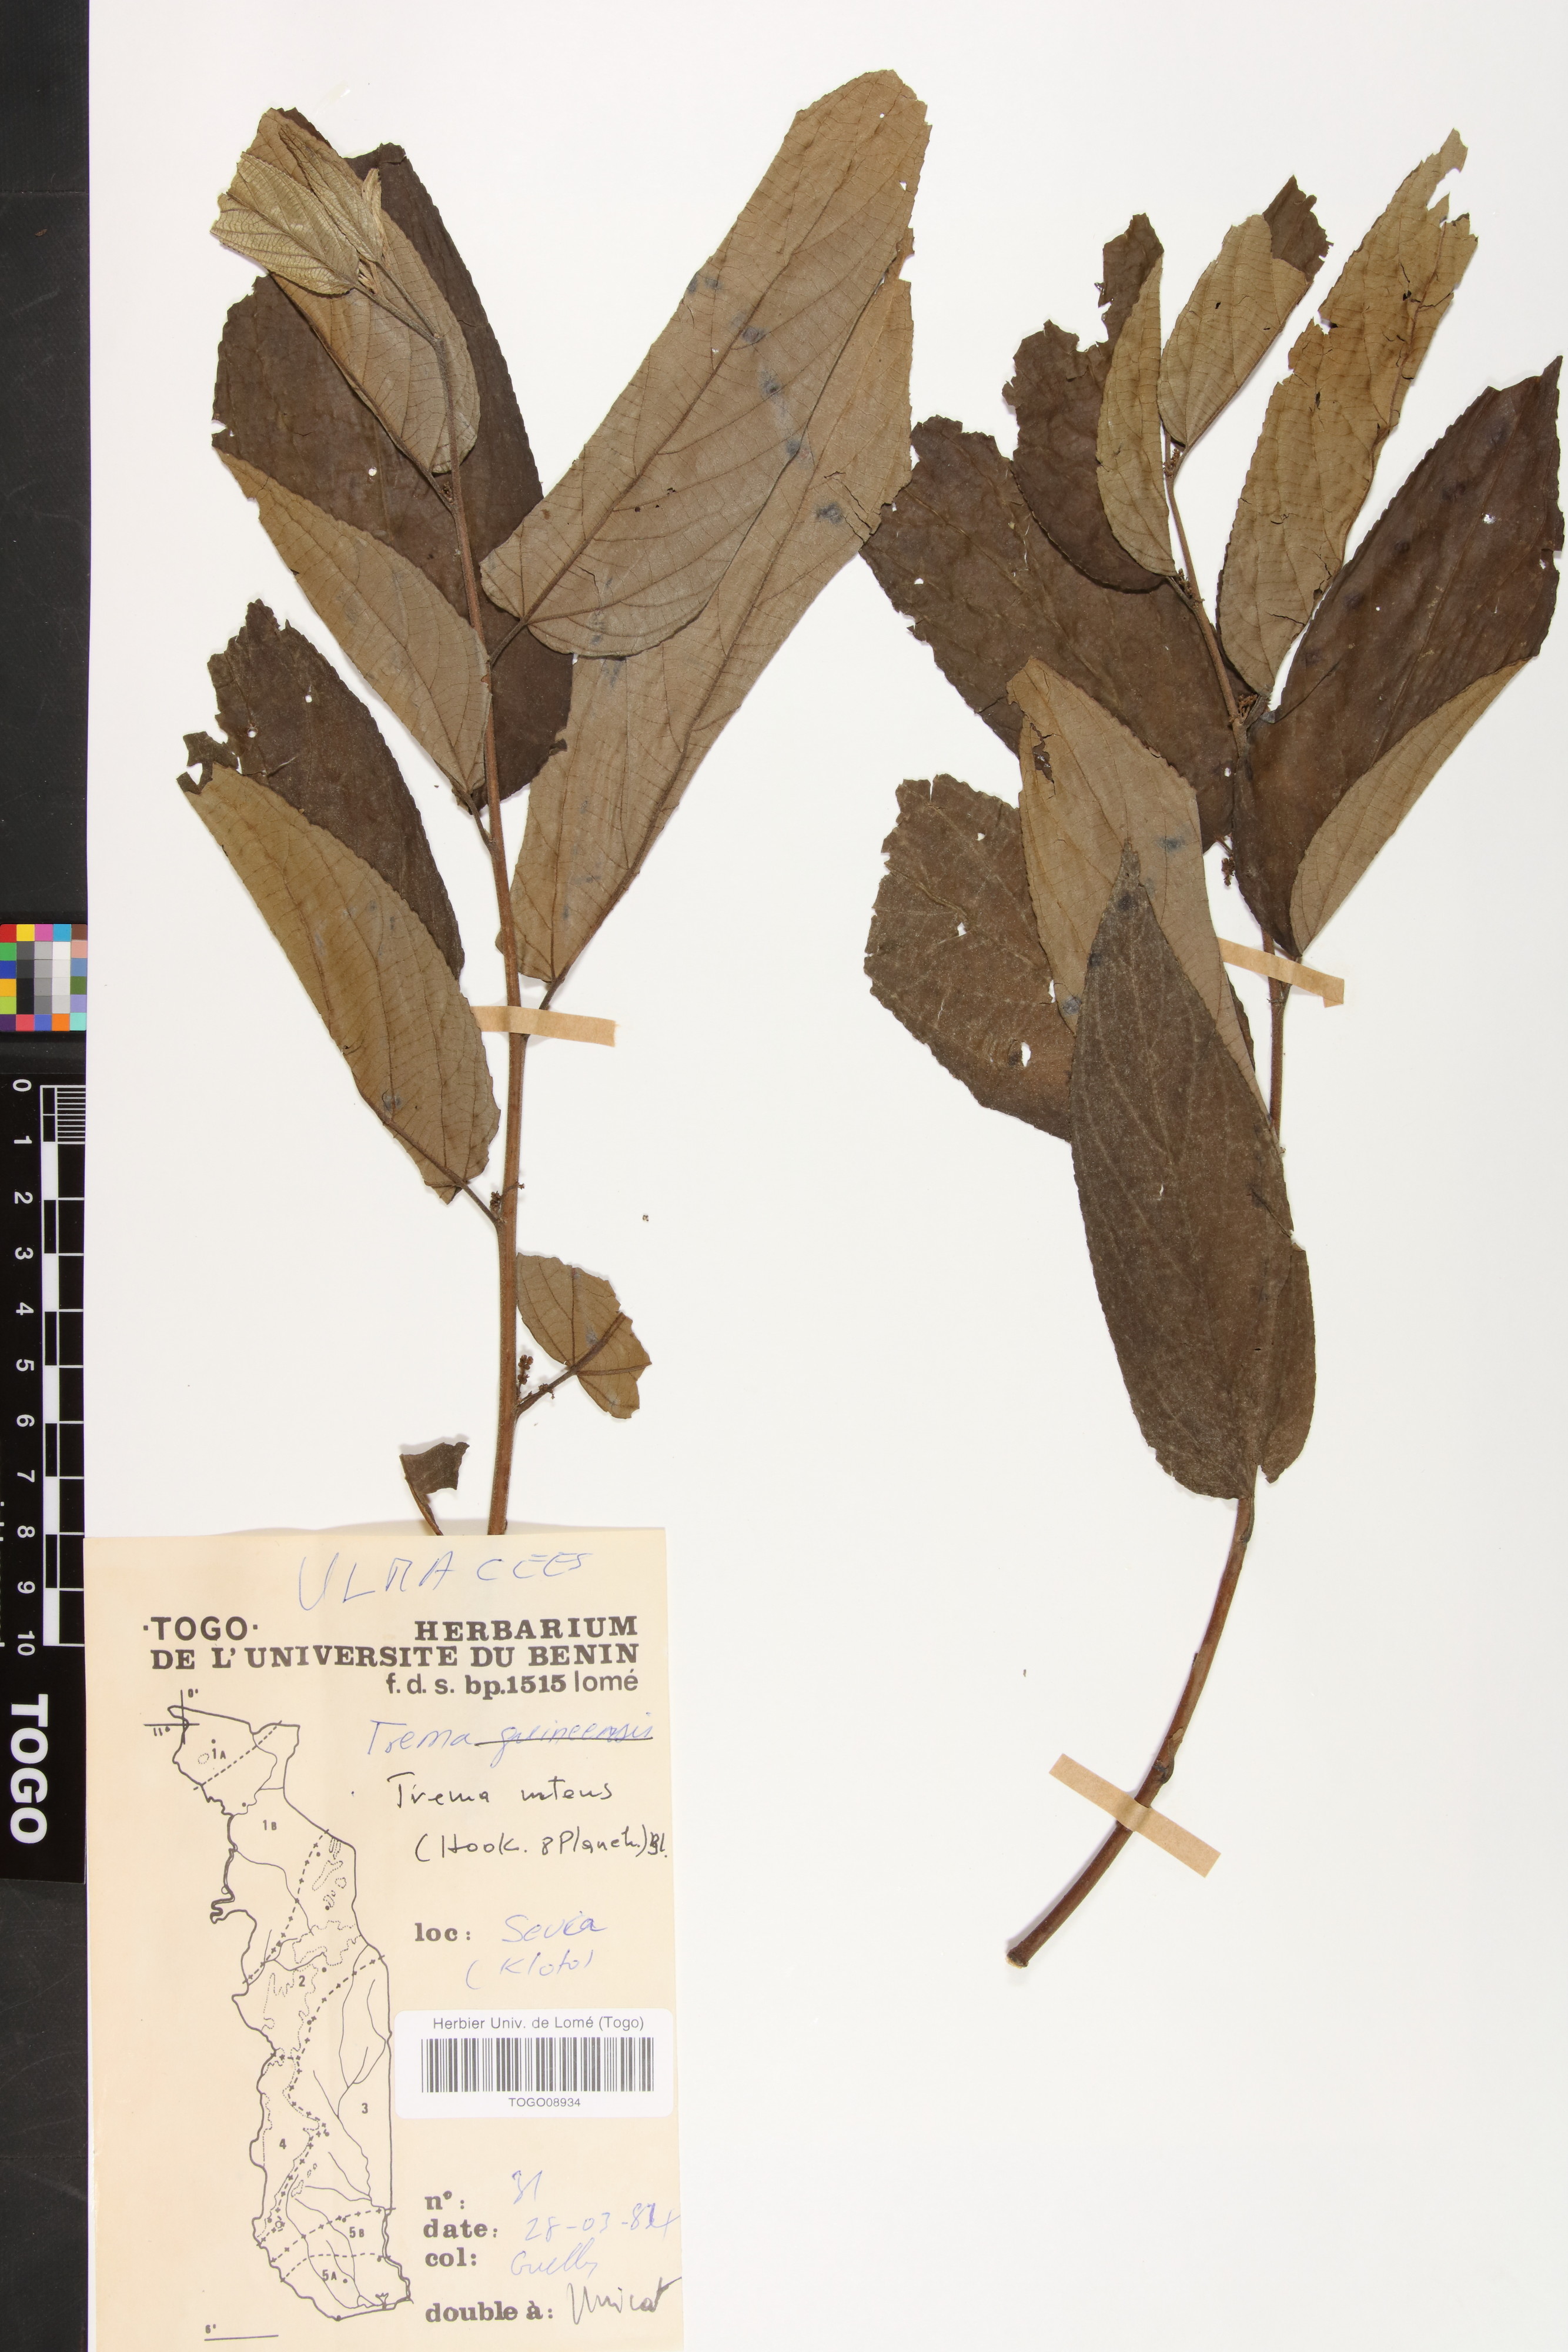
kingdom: Plantae
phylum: Tracheophyta
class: Magnoliopsida
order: Rosales
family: Cannabaceae
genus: Trema
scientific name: Trema orientale
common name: Indian charcoal tree
